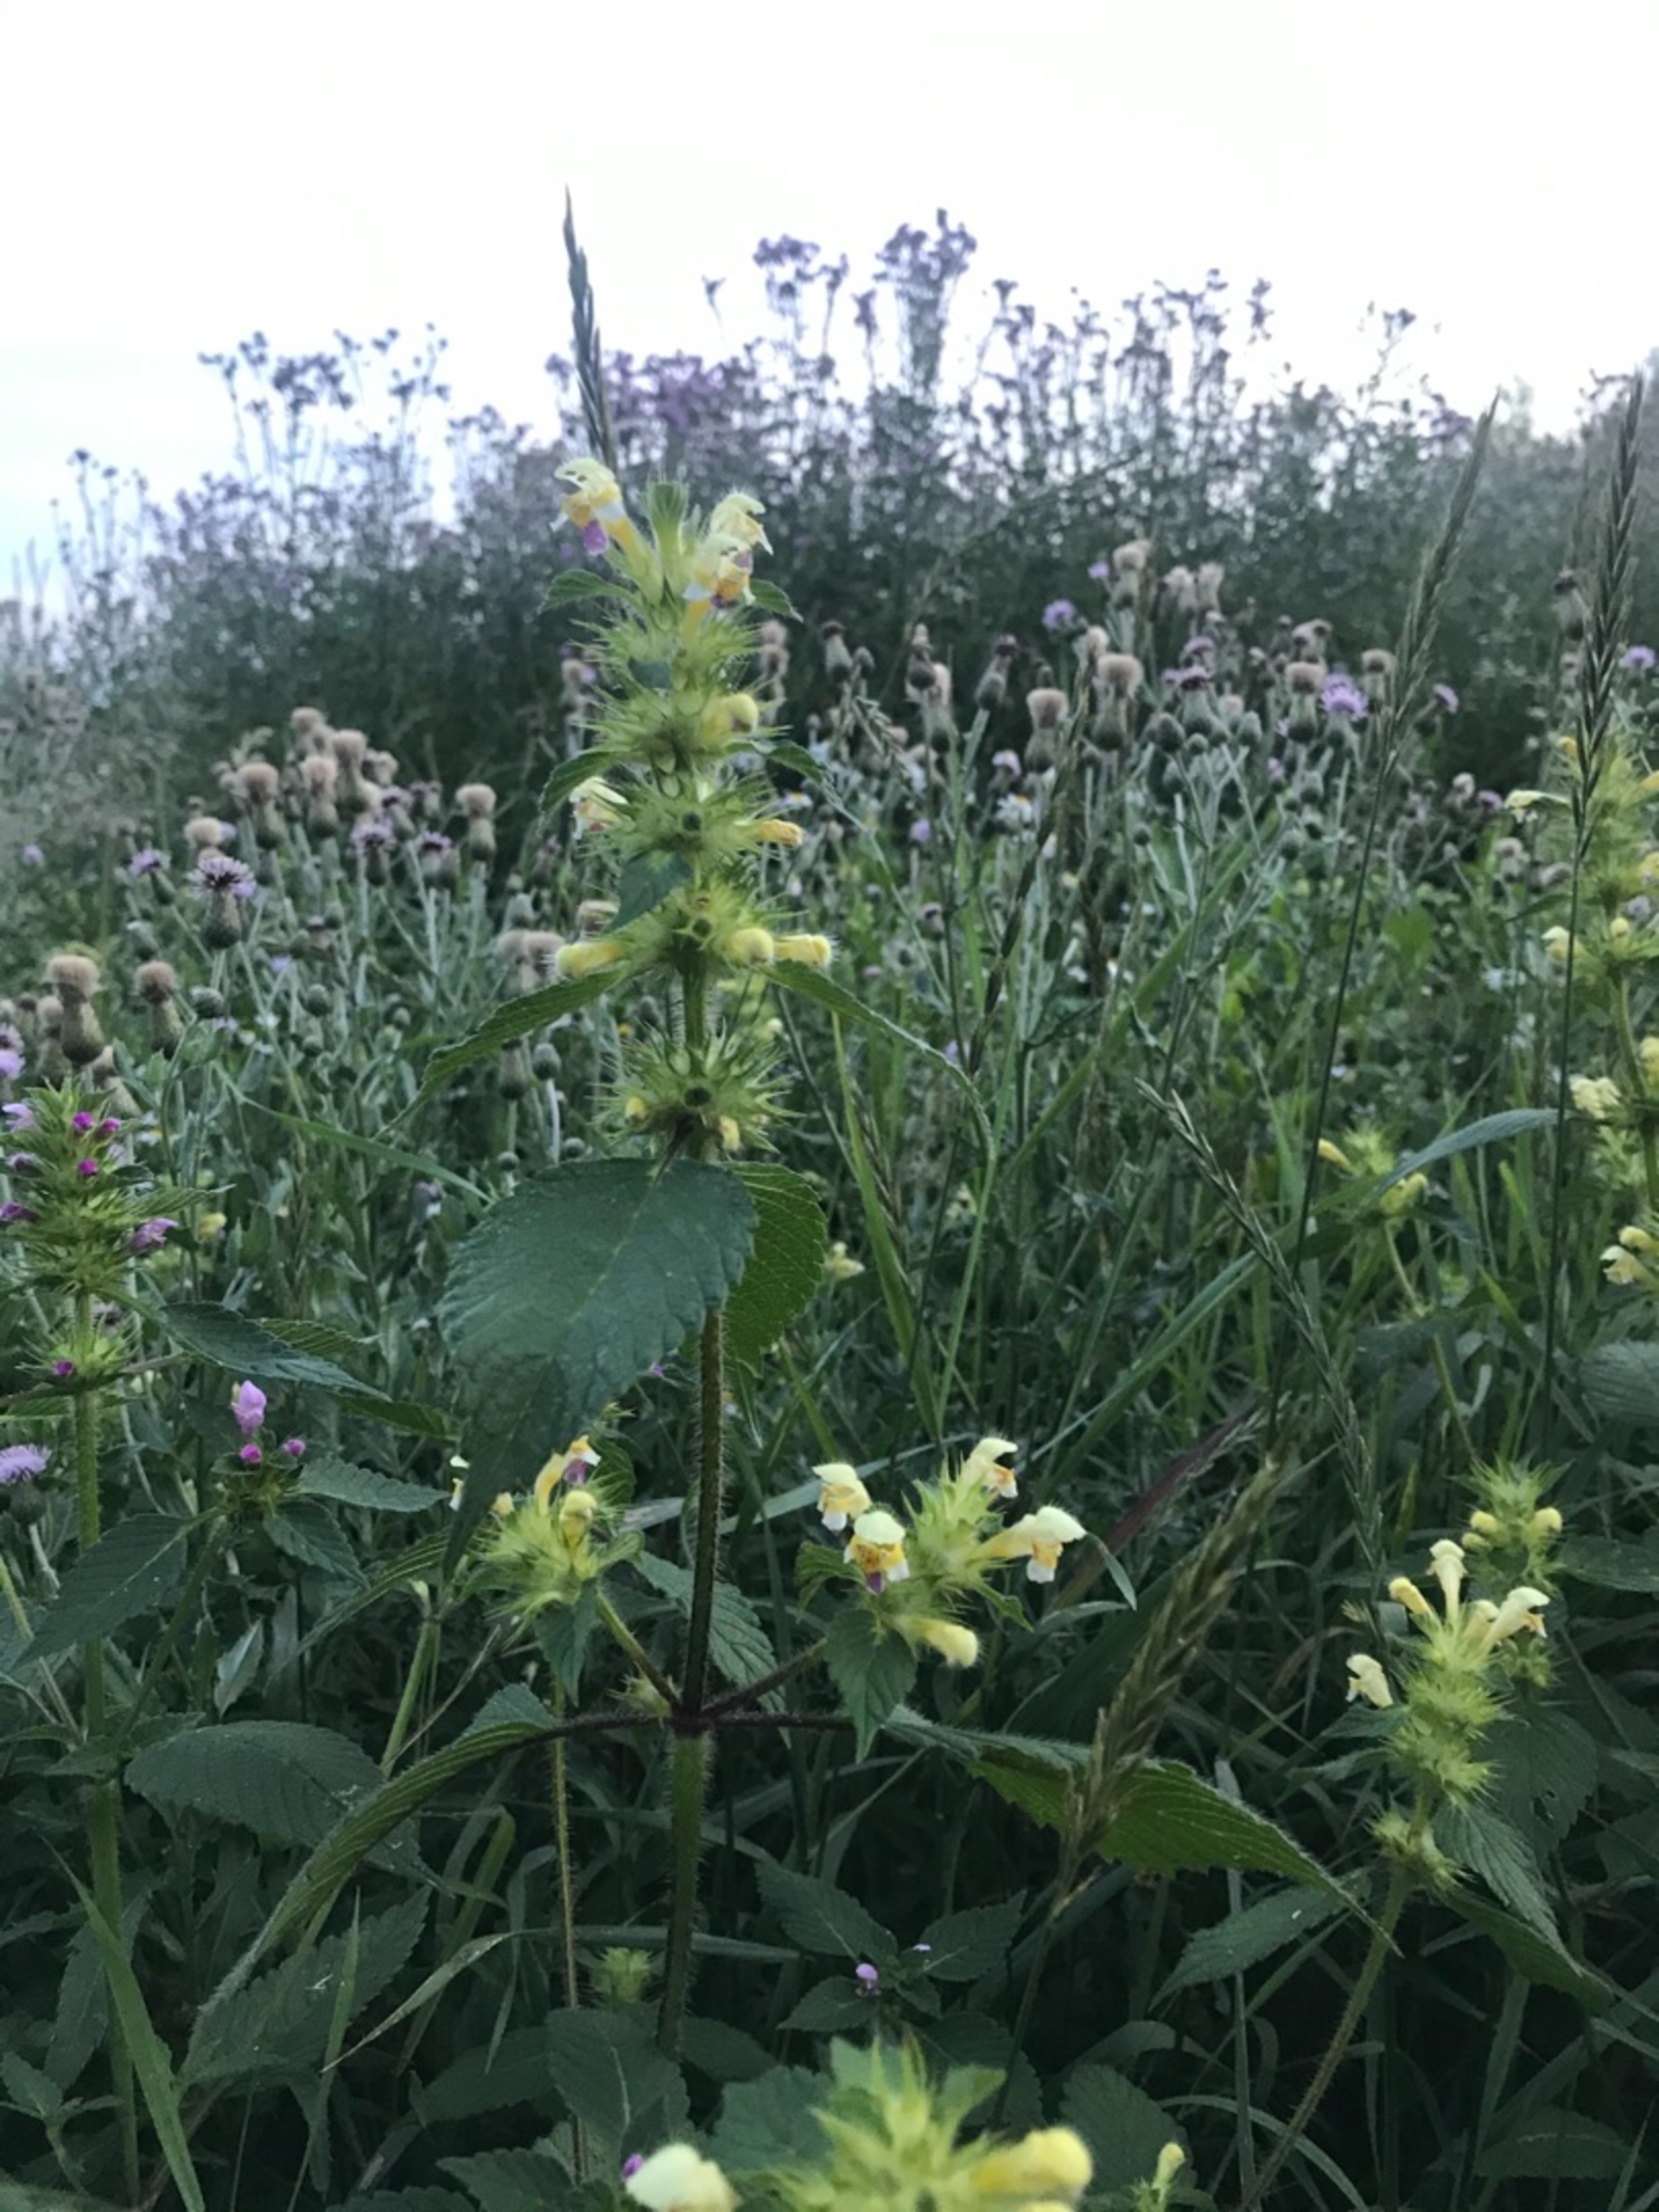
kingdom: Plantae
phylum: Tracheophyta
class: Magnoliopsida
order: Lamiales
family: Lamiaceae
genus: Galeopsis
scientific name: Galeopsis speciosa
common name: Hamp-hanekro
